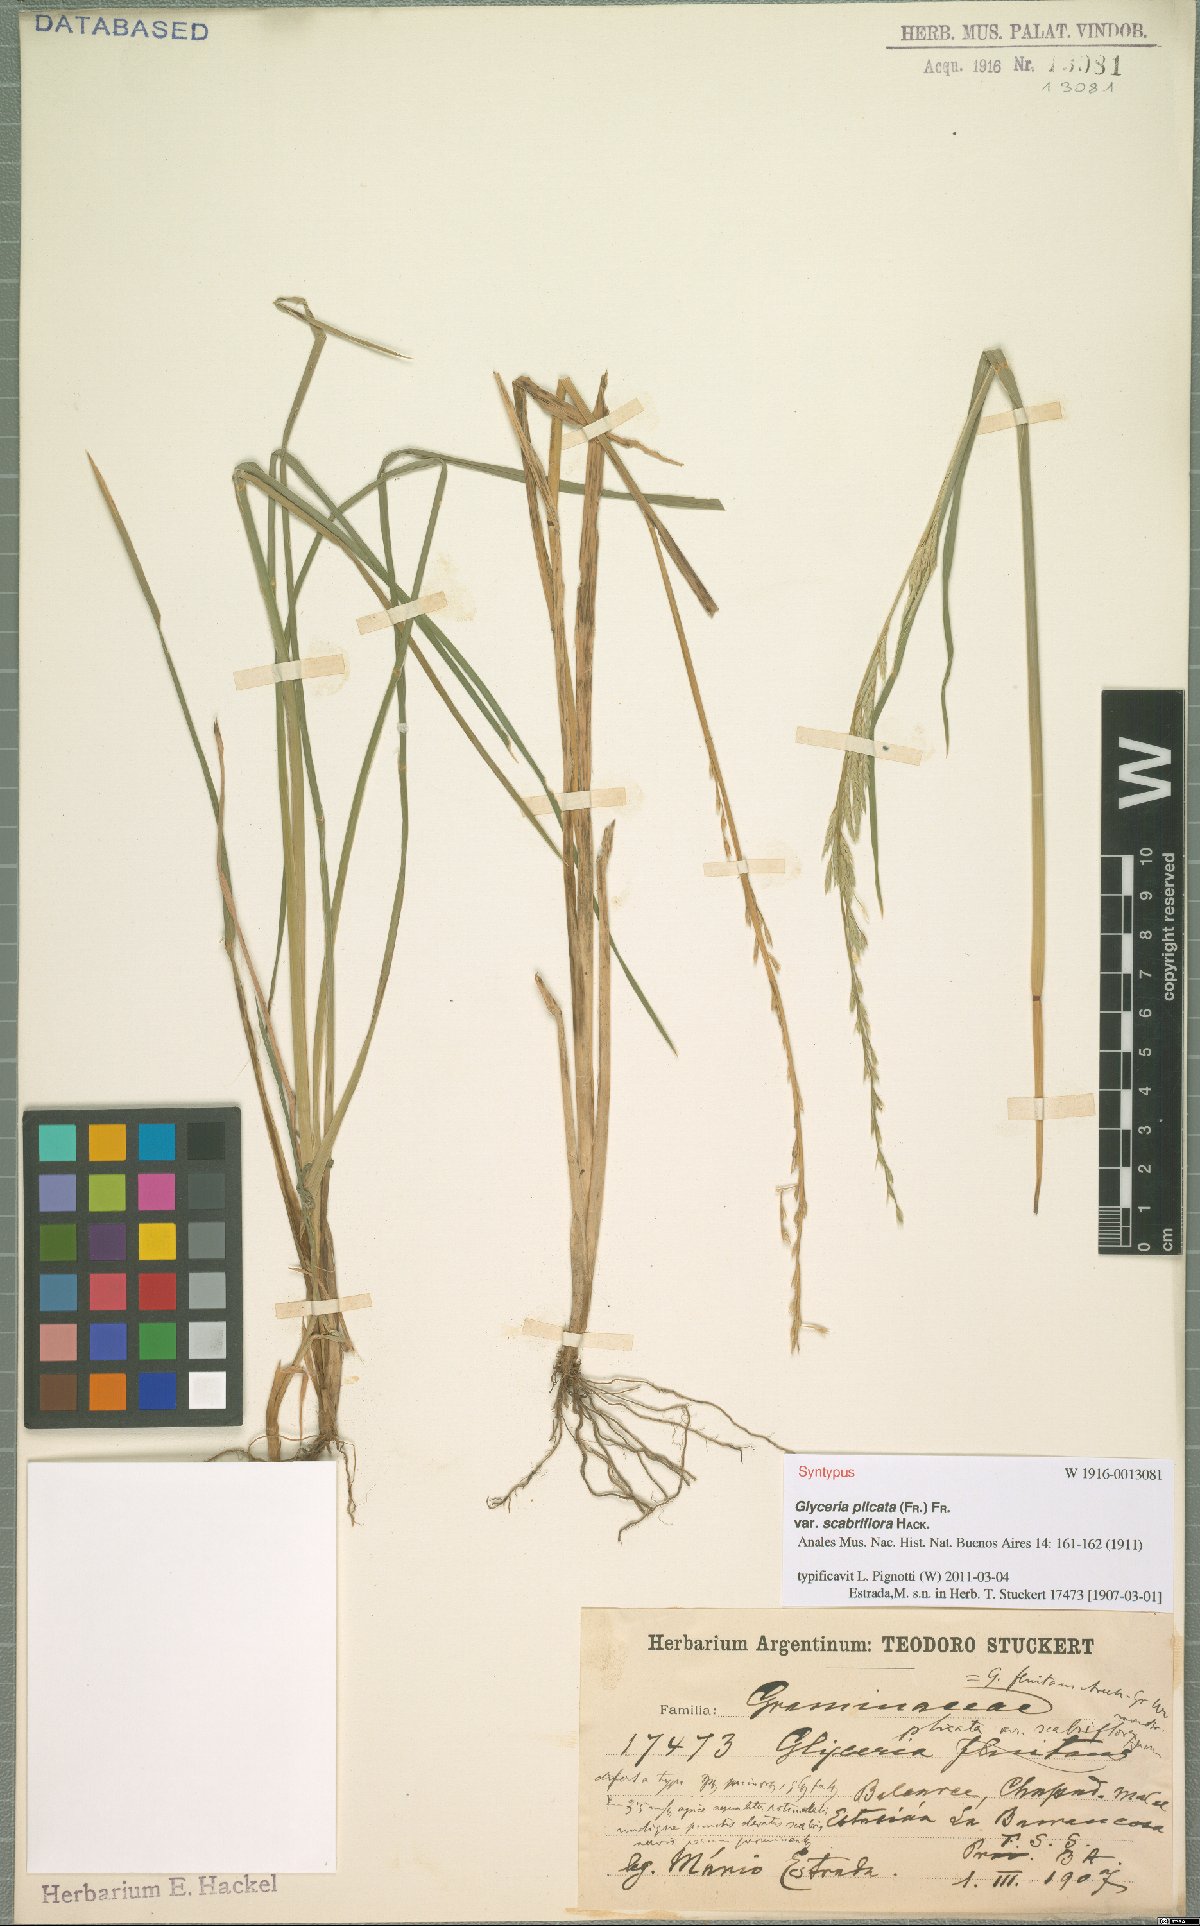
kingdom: Plantae
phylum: Tracheophyta
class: Liliopsida
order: Poales
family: Poaceae
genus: Glyceria
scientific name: Glyceria notata
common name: Plicate sweet-grass
